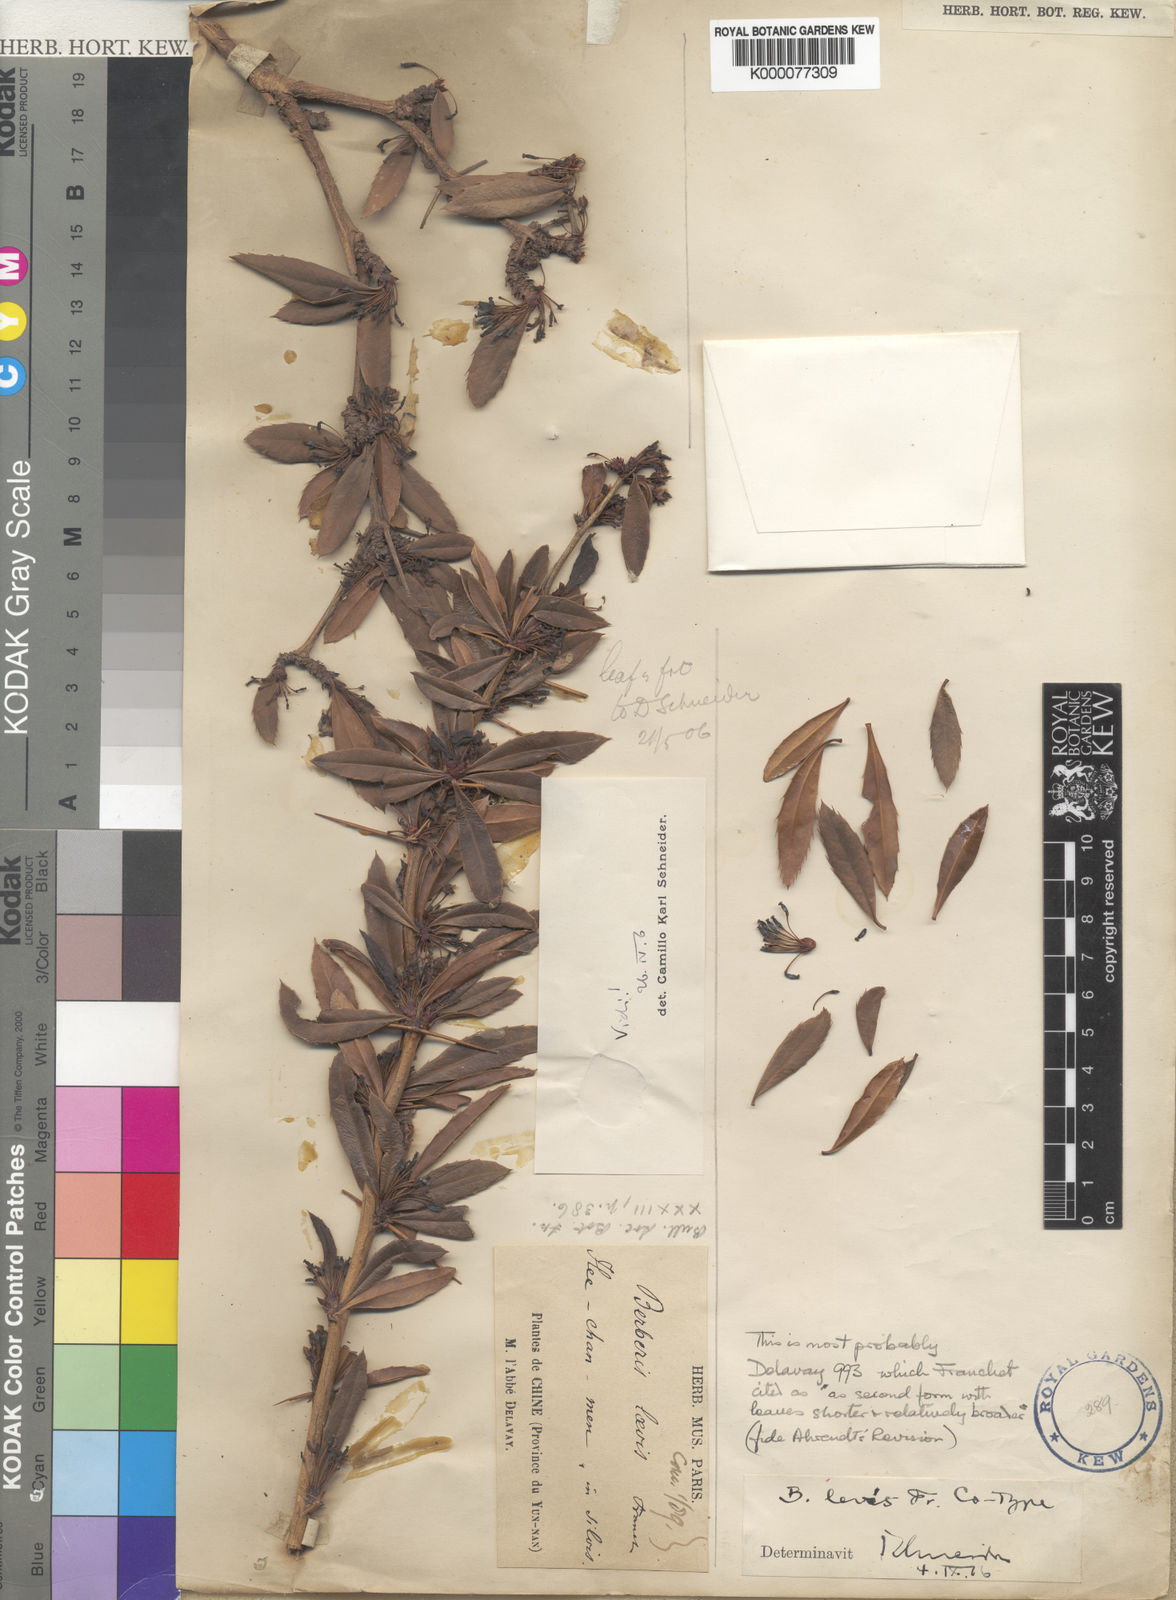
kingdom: Plantae
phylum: Tracheophyta
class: Magnoliopsida
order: Ranunculales
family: Berberidaceae
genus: Berberis
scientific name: Berberis levis
